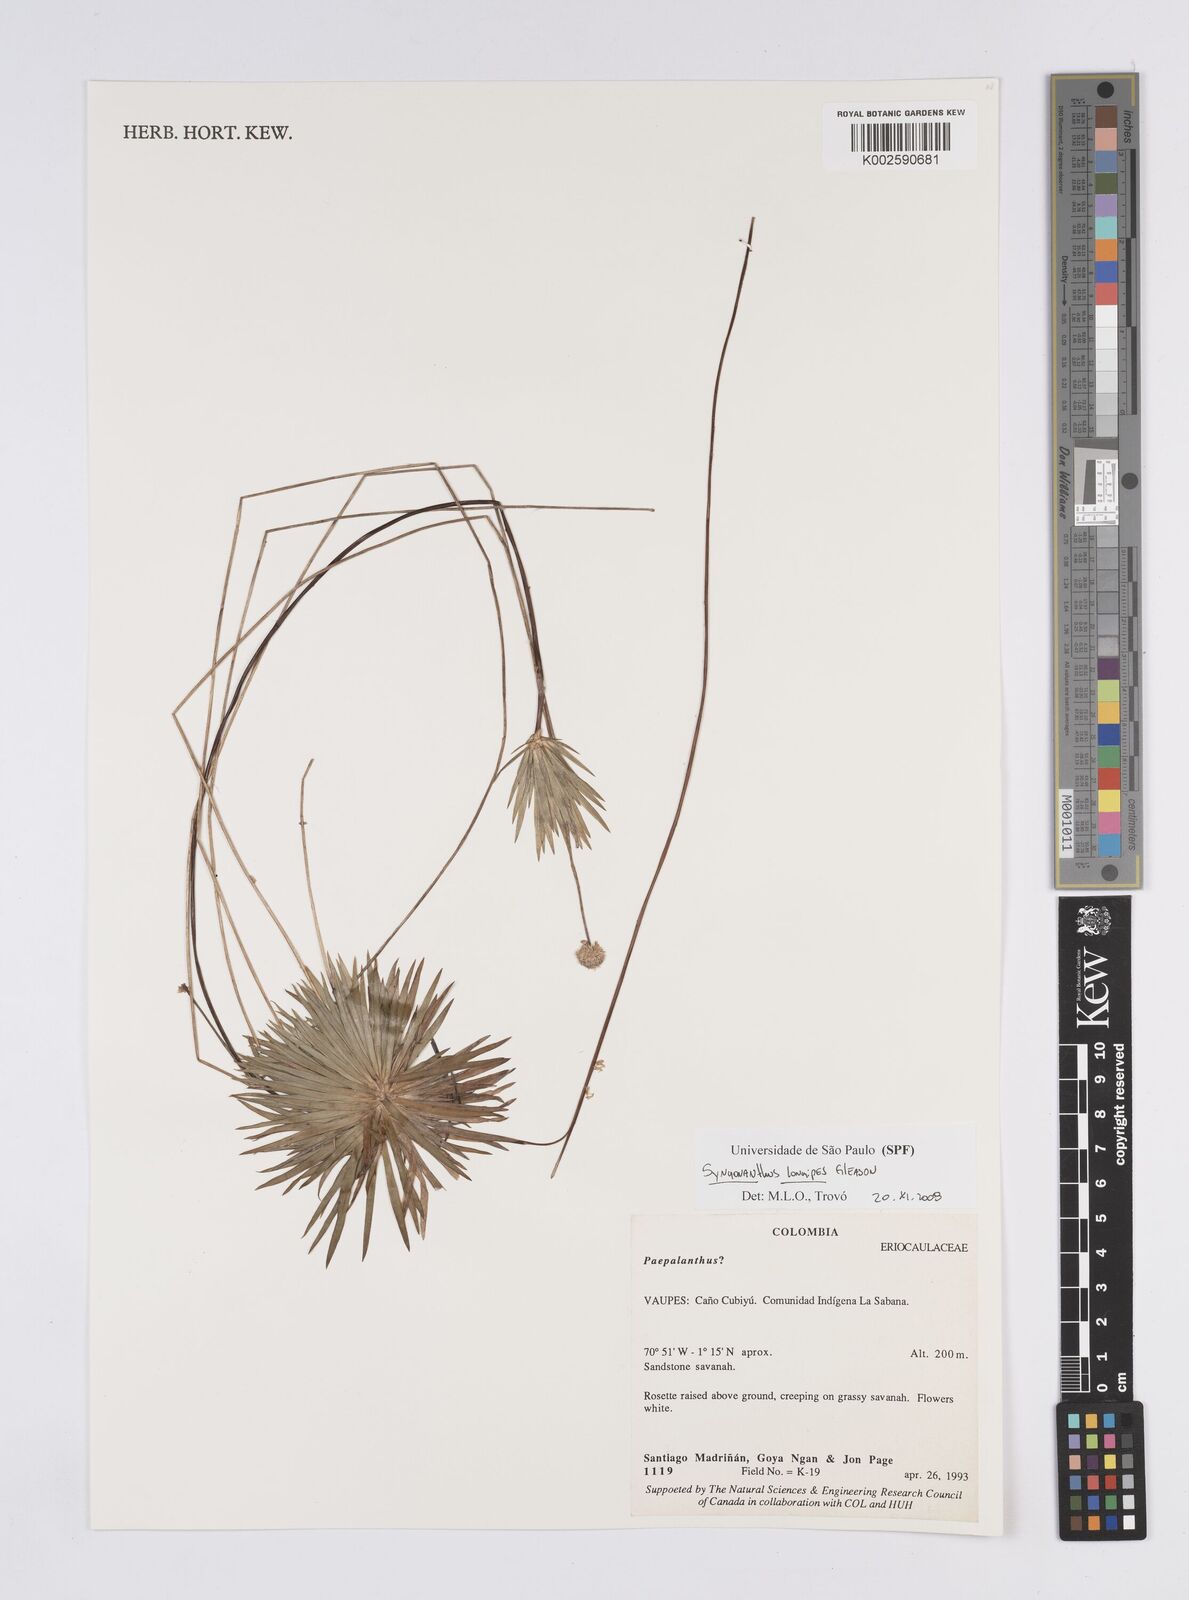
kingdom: Plantae
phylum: Tracheophyta
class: Liliopsida
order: Poales
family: Eriocaulaceae
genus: Syngonanthus
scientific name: Syngonanthus longipes
